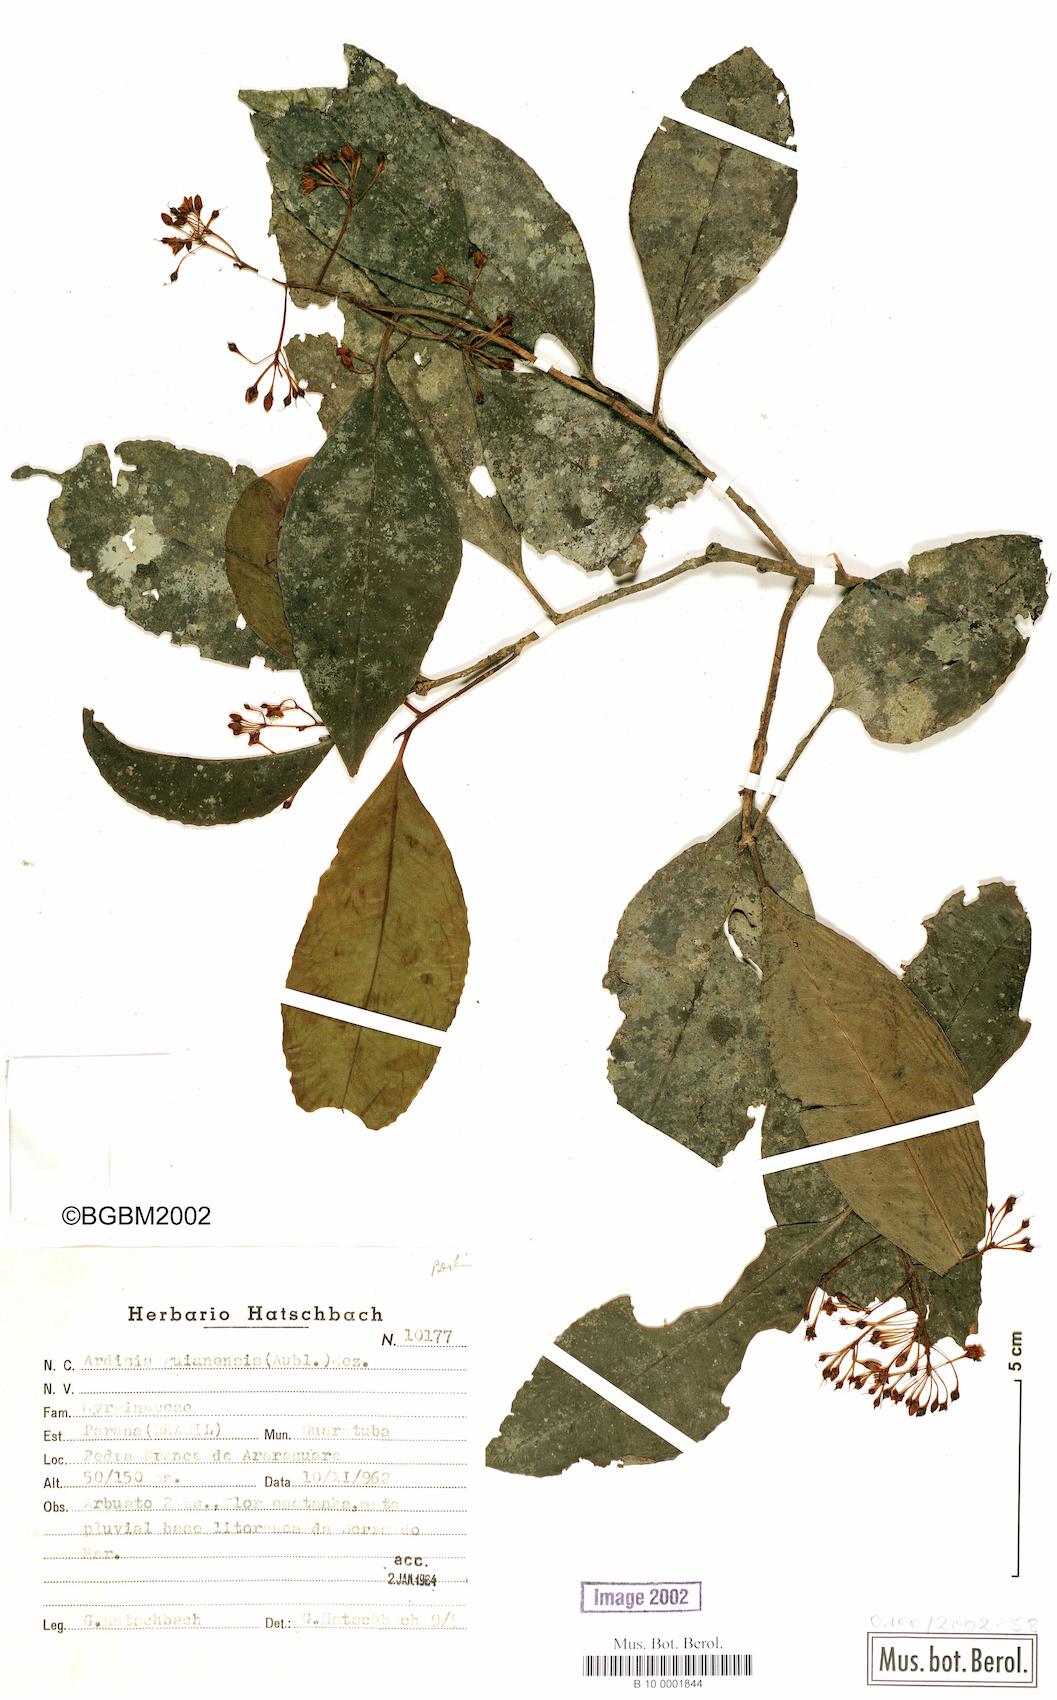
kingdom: Plantae
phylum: Tracheophyta
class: Magnoliopsida
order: Ericales
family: Primulaceae
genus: Ardisia
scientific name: Ardisia guianensis
